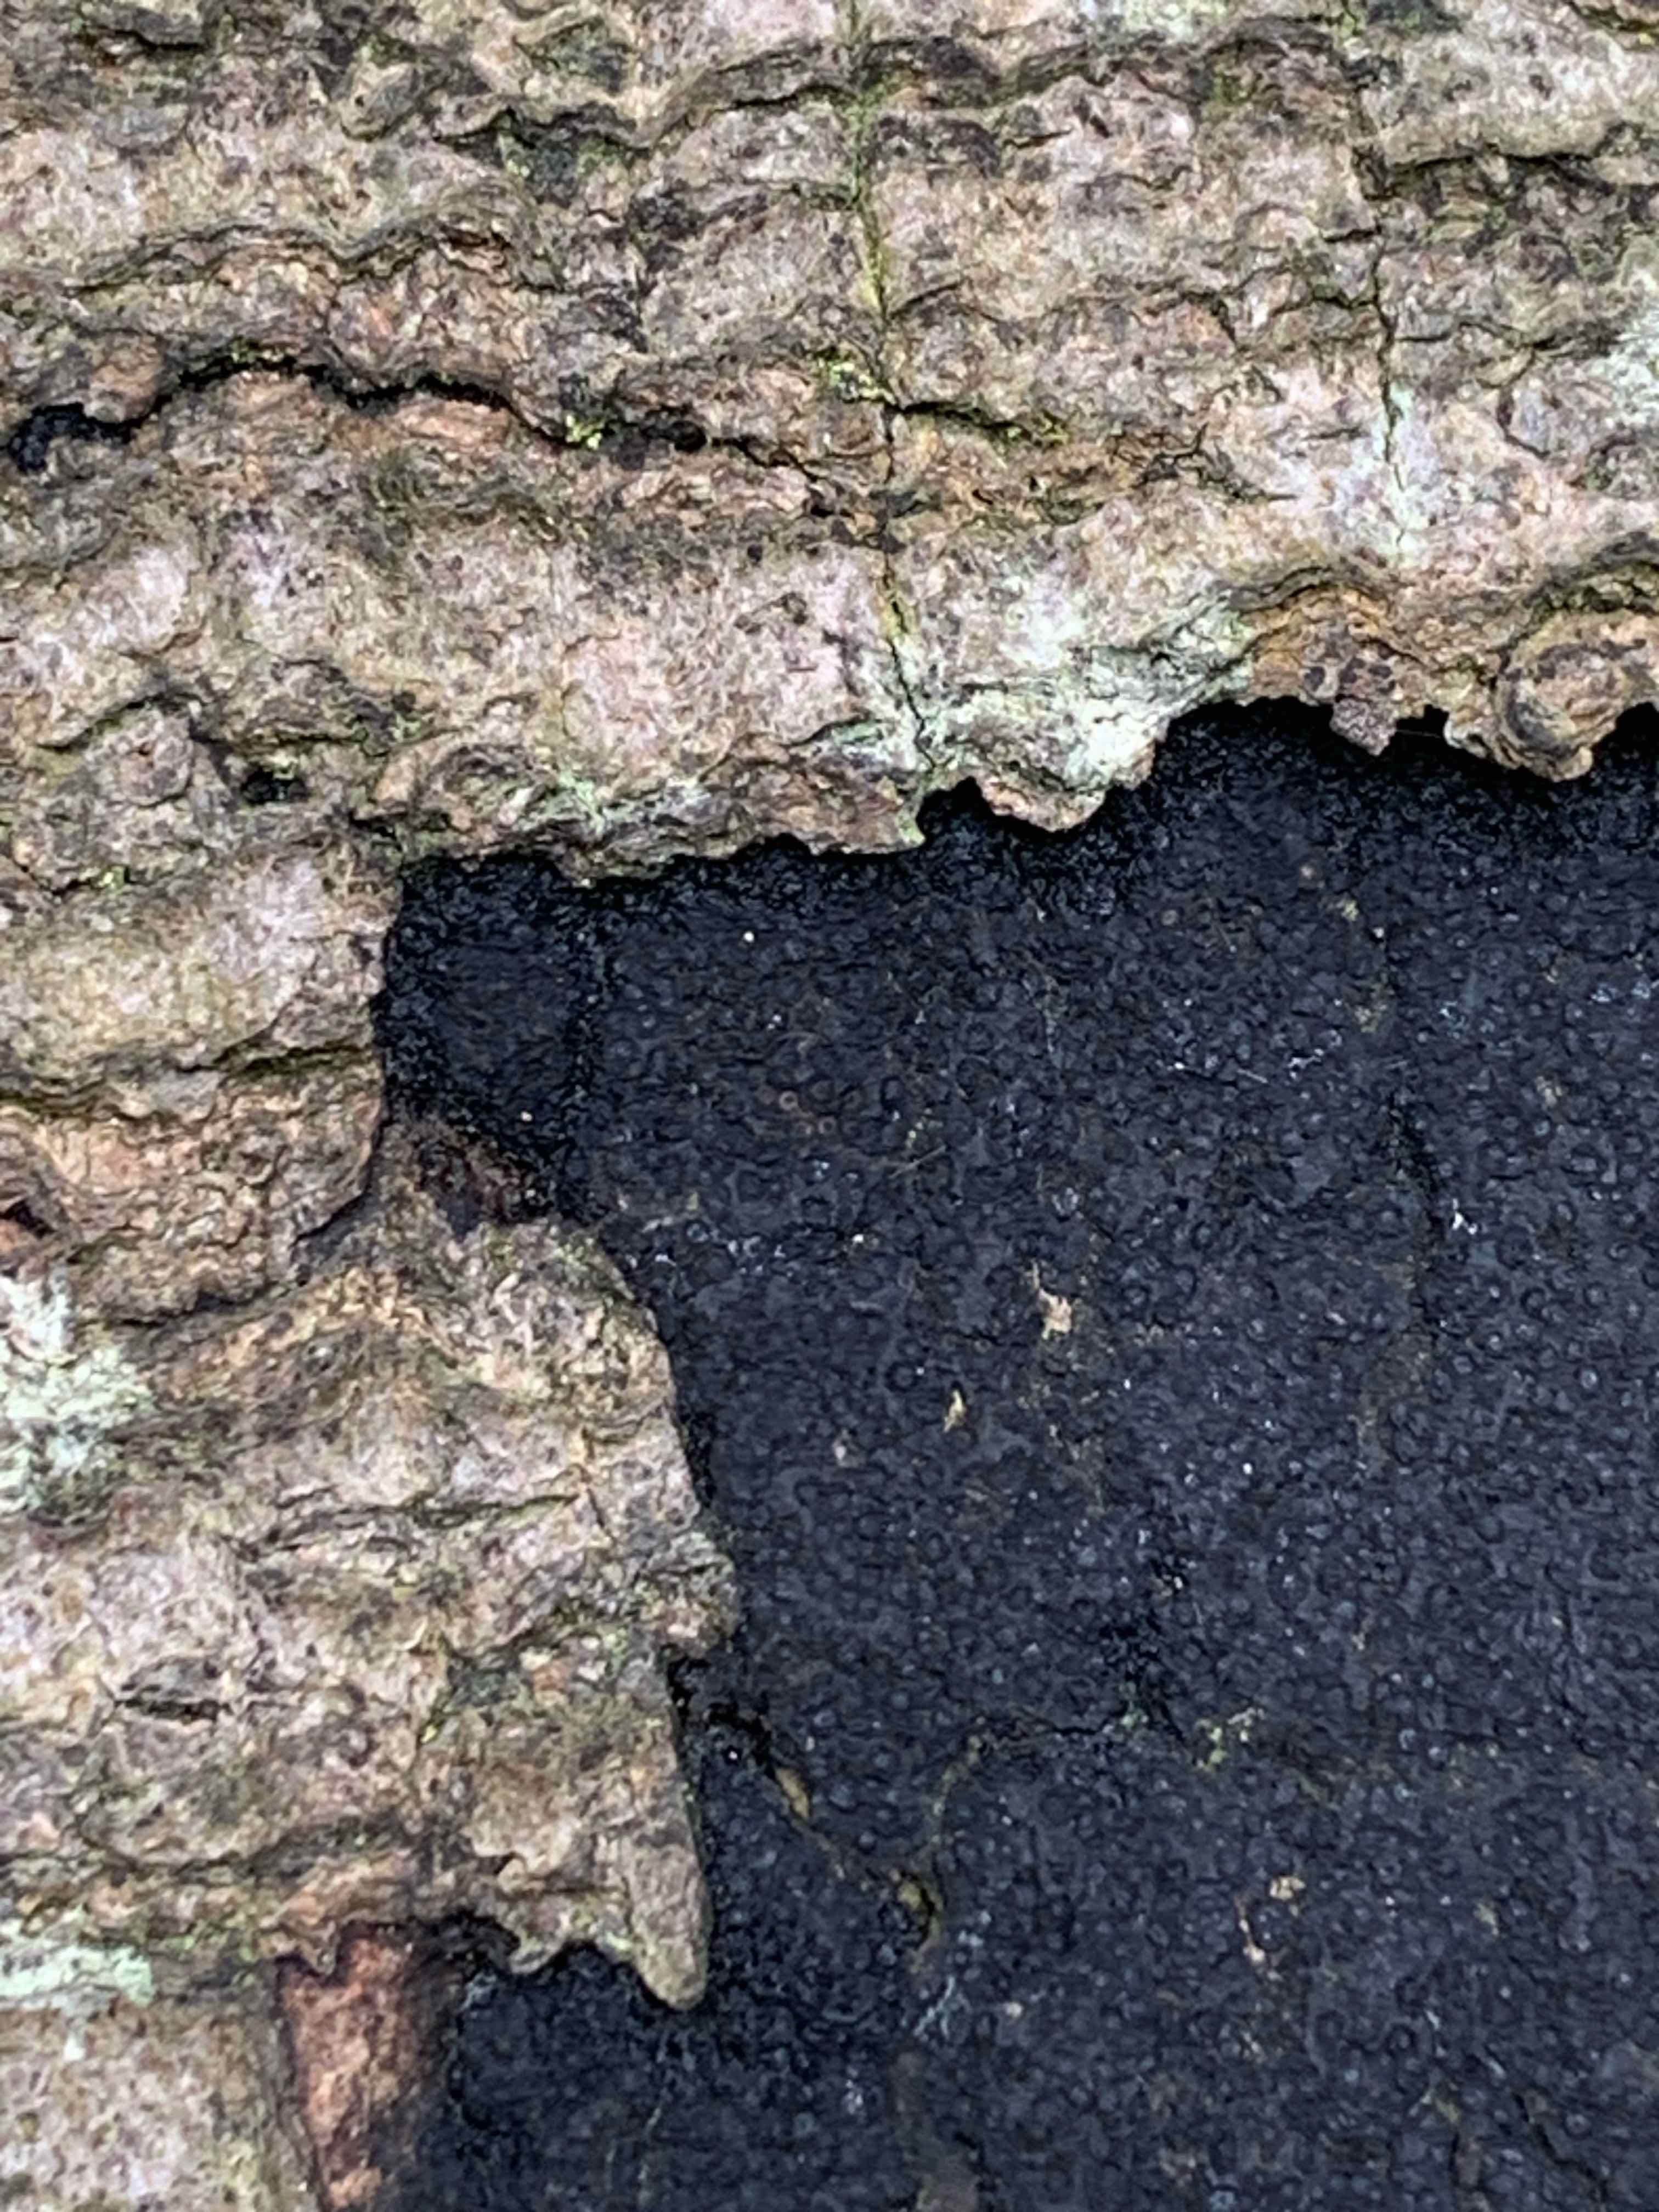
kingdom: Fungi
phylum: Ascomycota
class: Sordariomycetes
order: Xylariales
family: Diatrypaceae
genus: Eutypa
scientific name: Eutypa spinosa
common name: grov kulskorpe
